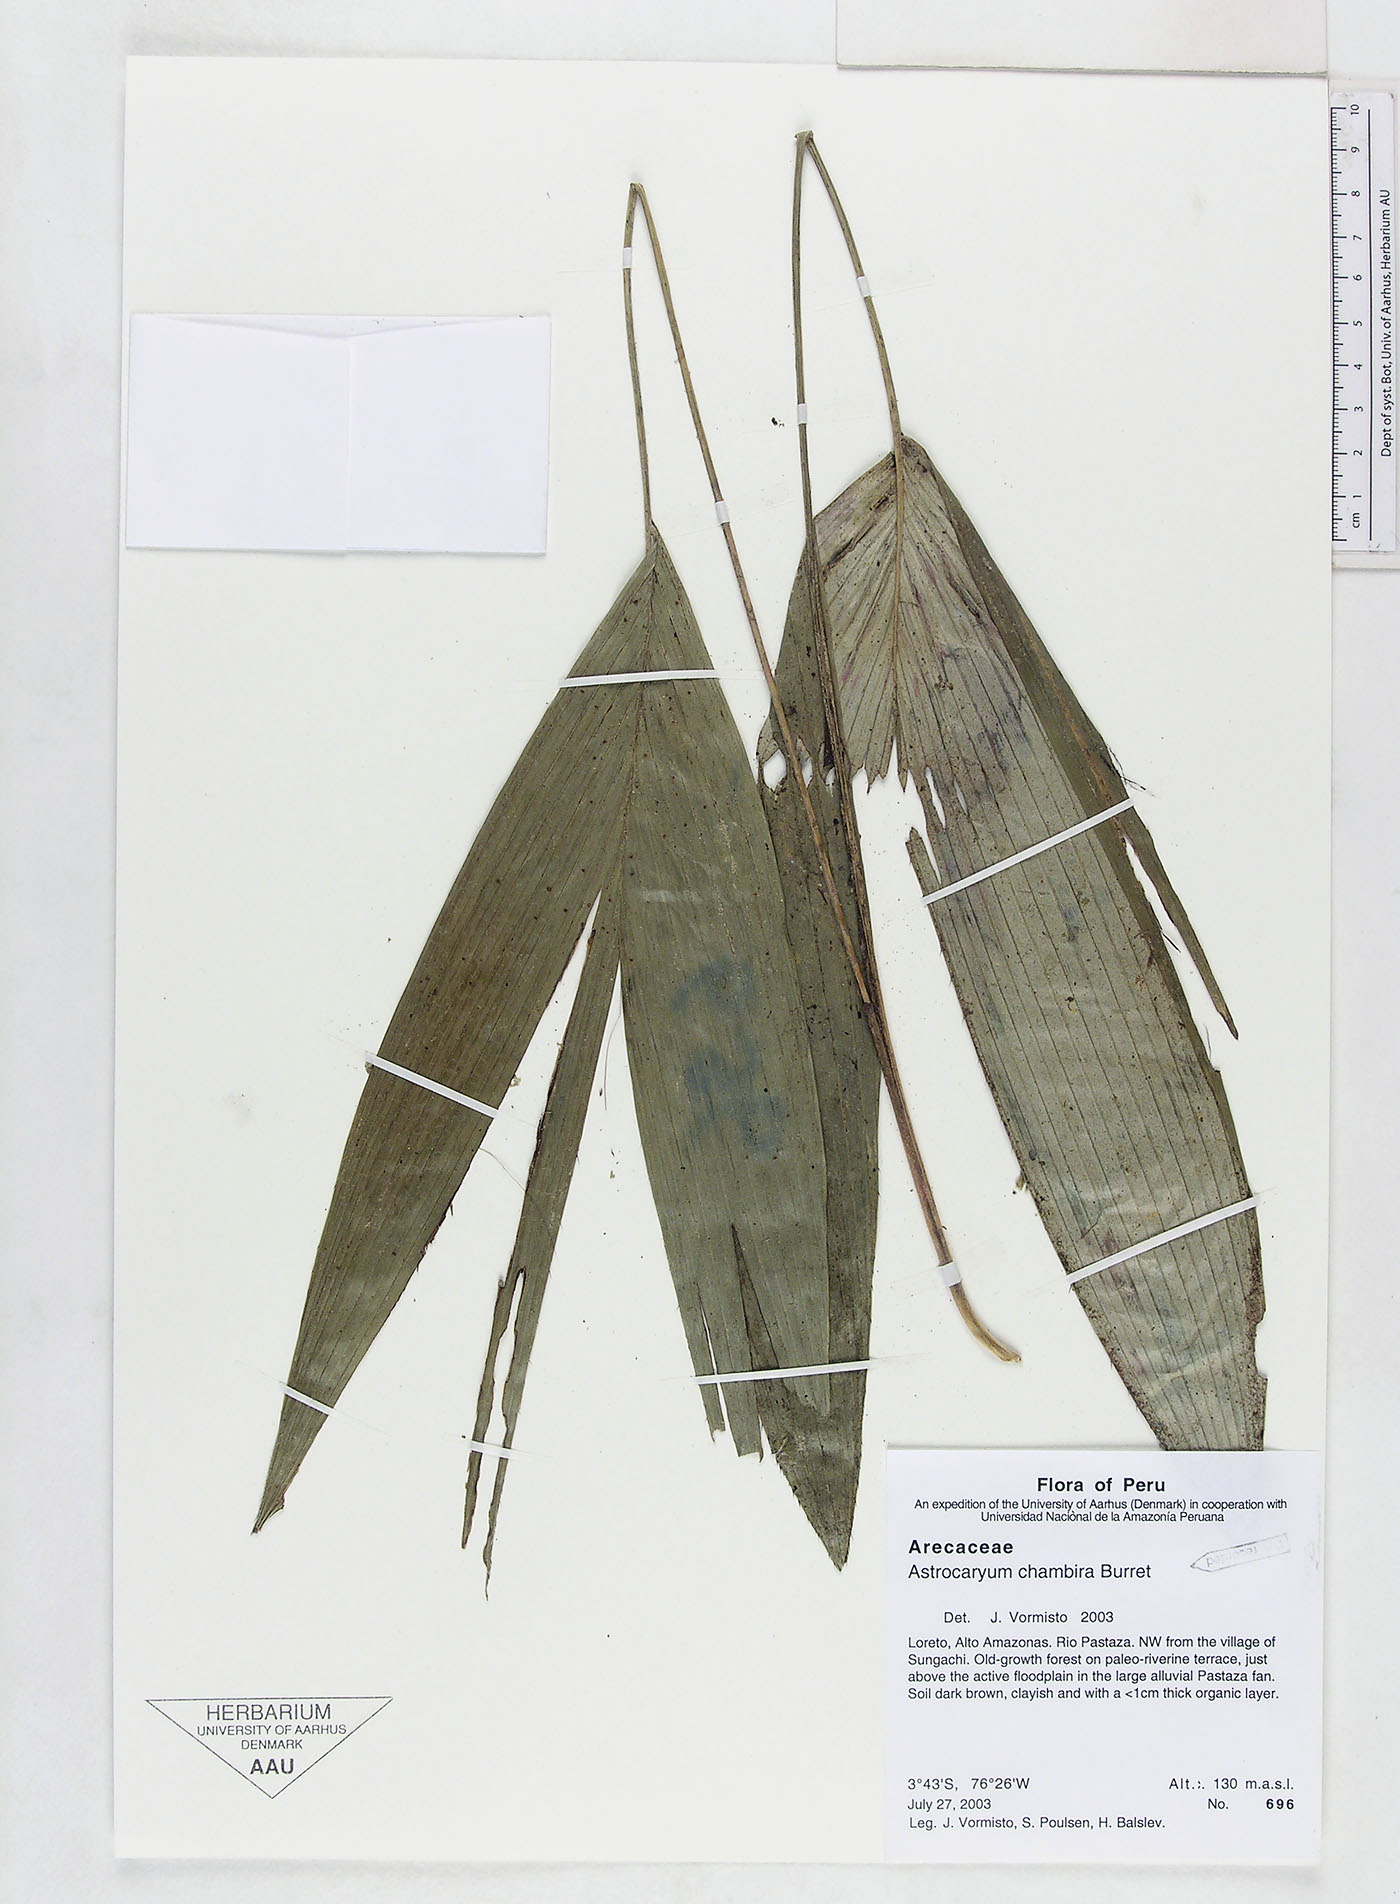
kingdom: Plantae
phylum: Tracheophyta
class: Liliopsida
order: Arecales
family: Arecaceae
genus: Astrocaryum
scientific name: Astrocaryum chambira
